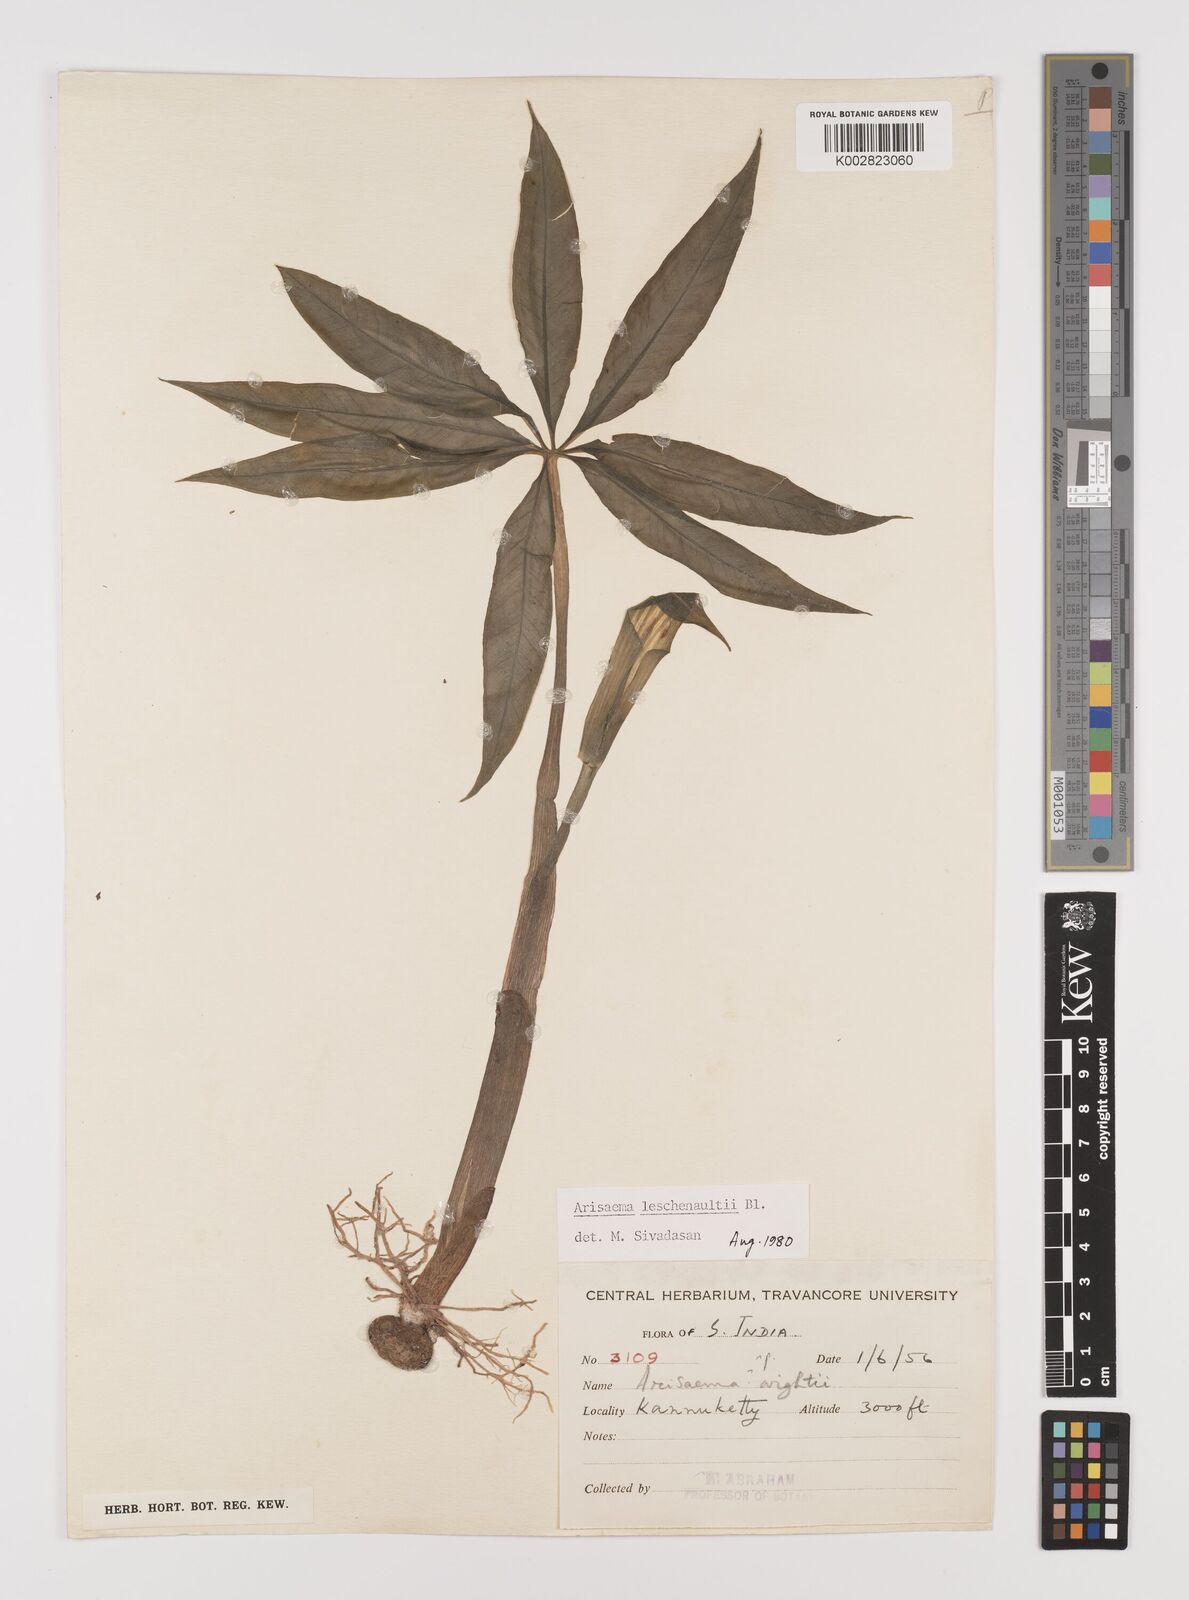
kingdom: Plantae
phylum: Tracheophyta
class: Liliopsida
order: Alismatales
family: Araceae
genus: Arisaema
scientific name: Arisaema leschenaultii
